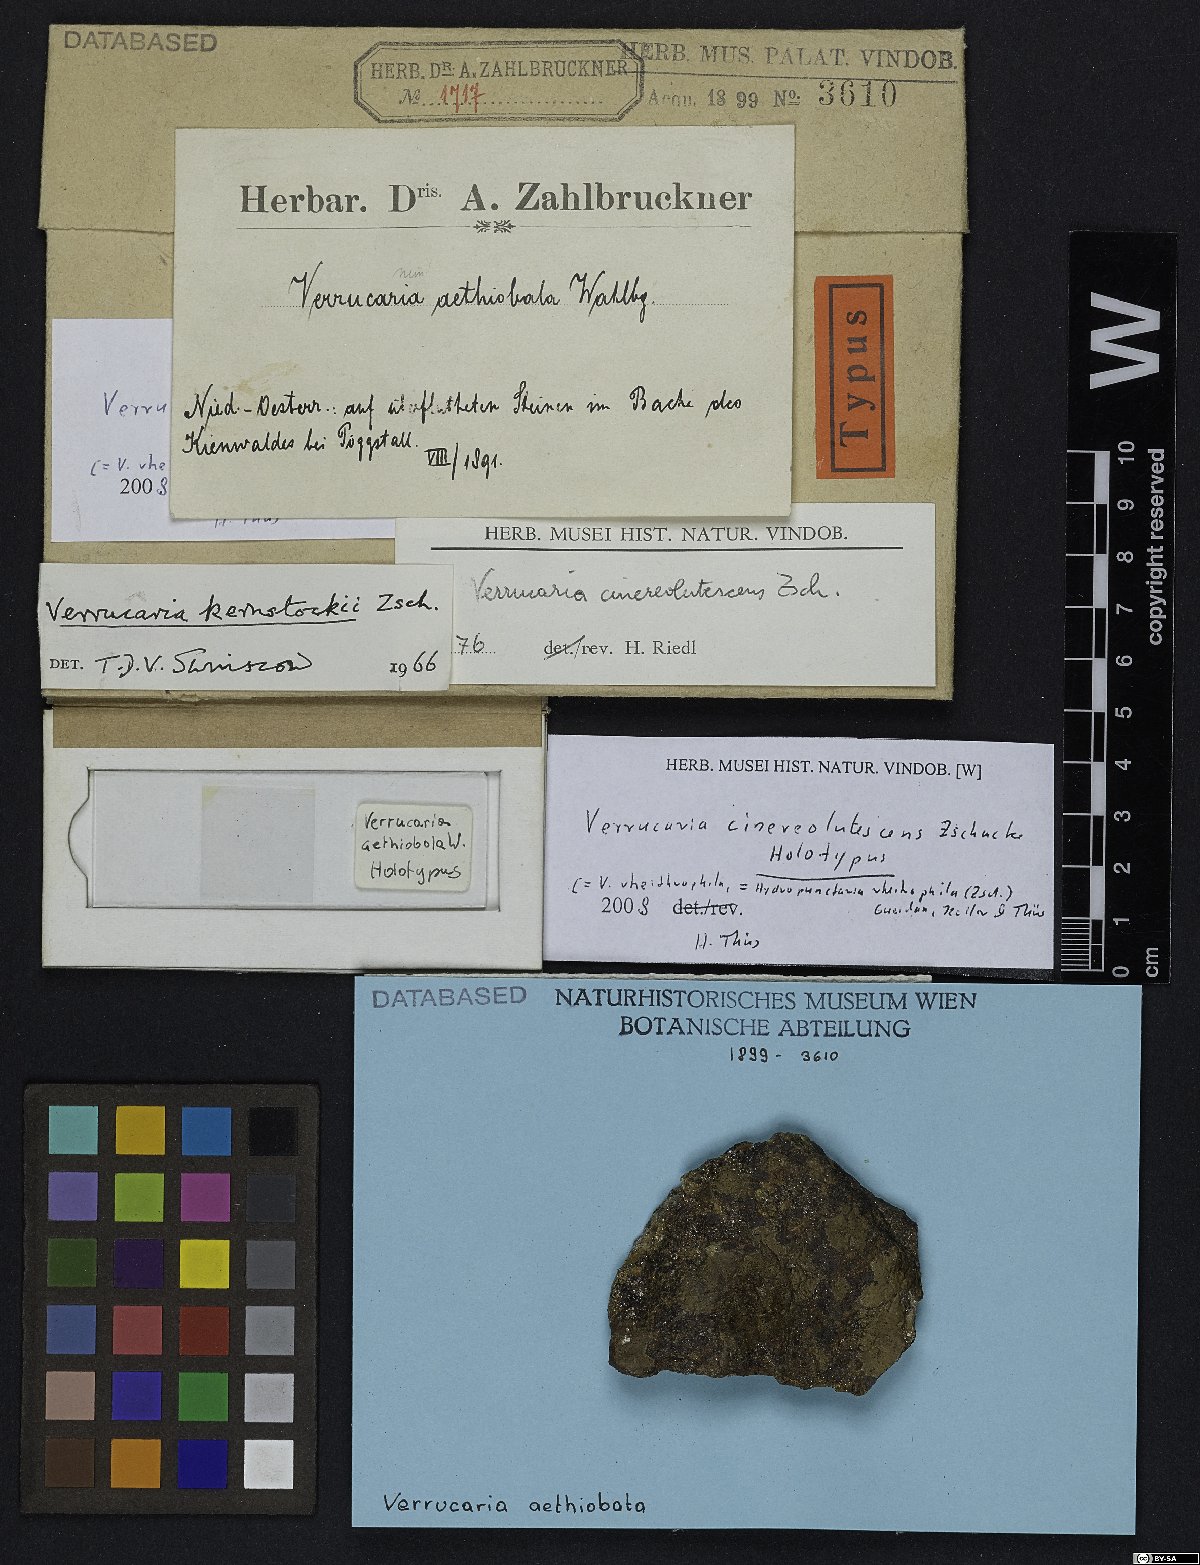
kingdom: Fungi
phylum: Ascomycota
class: Eurotiomycetes
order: Verrucariales
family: Verrucariaceae
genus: Hydropunctaria
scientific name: Hydropunctaria rheitrophila
